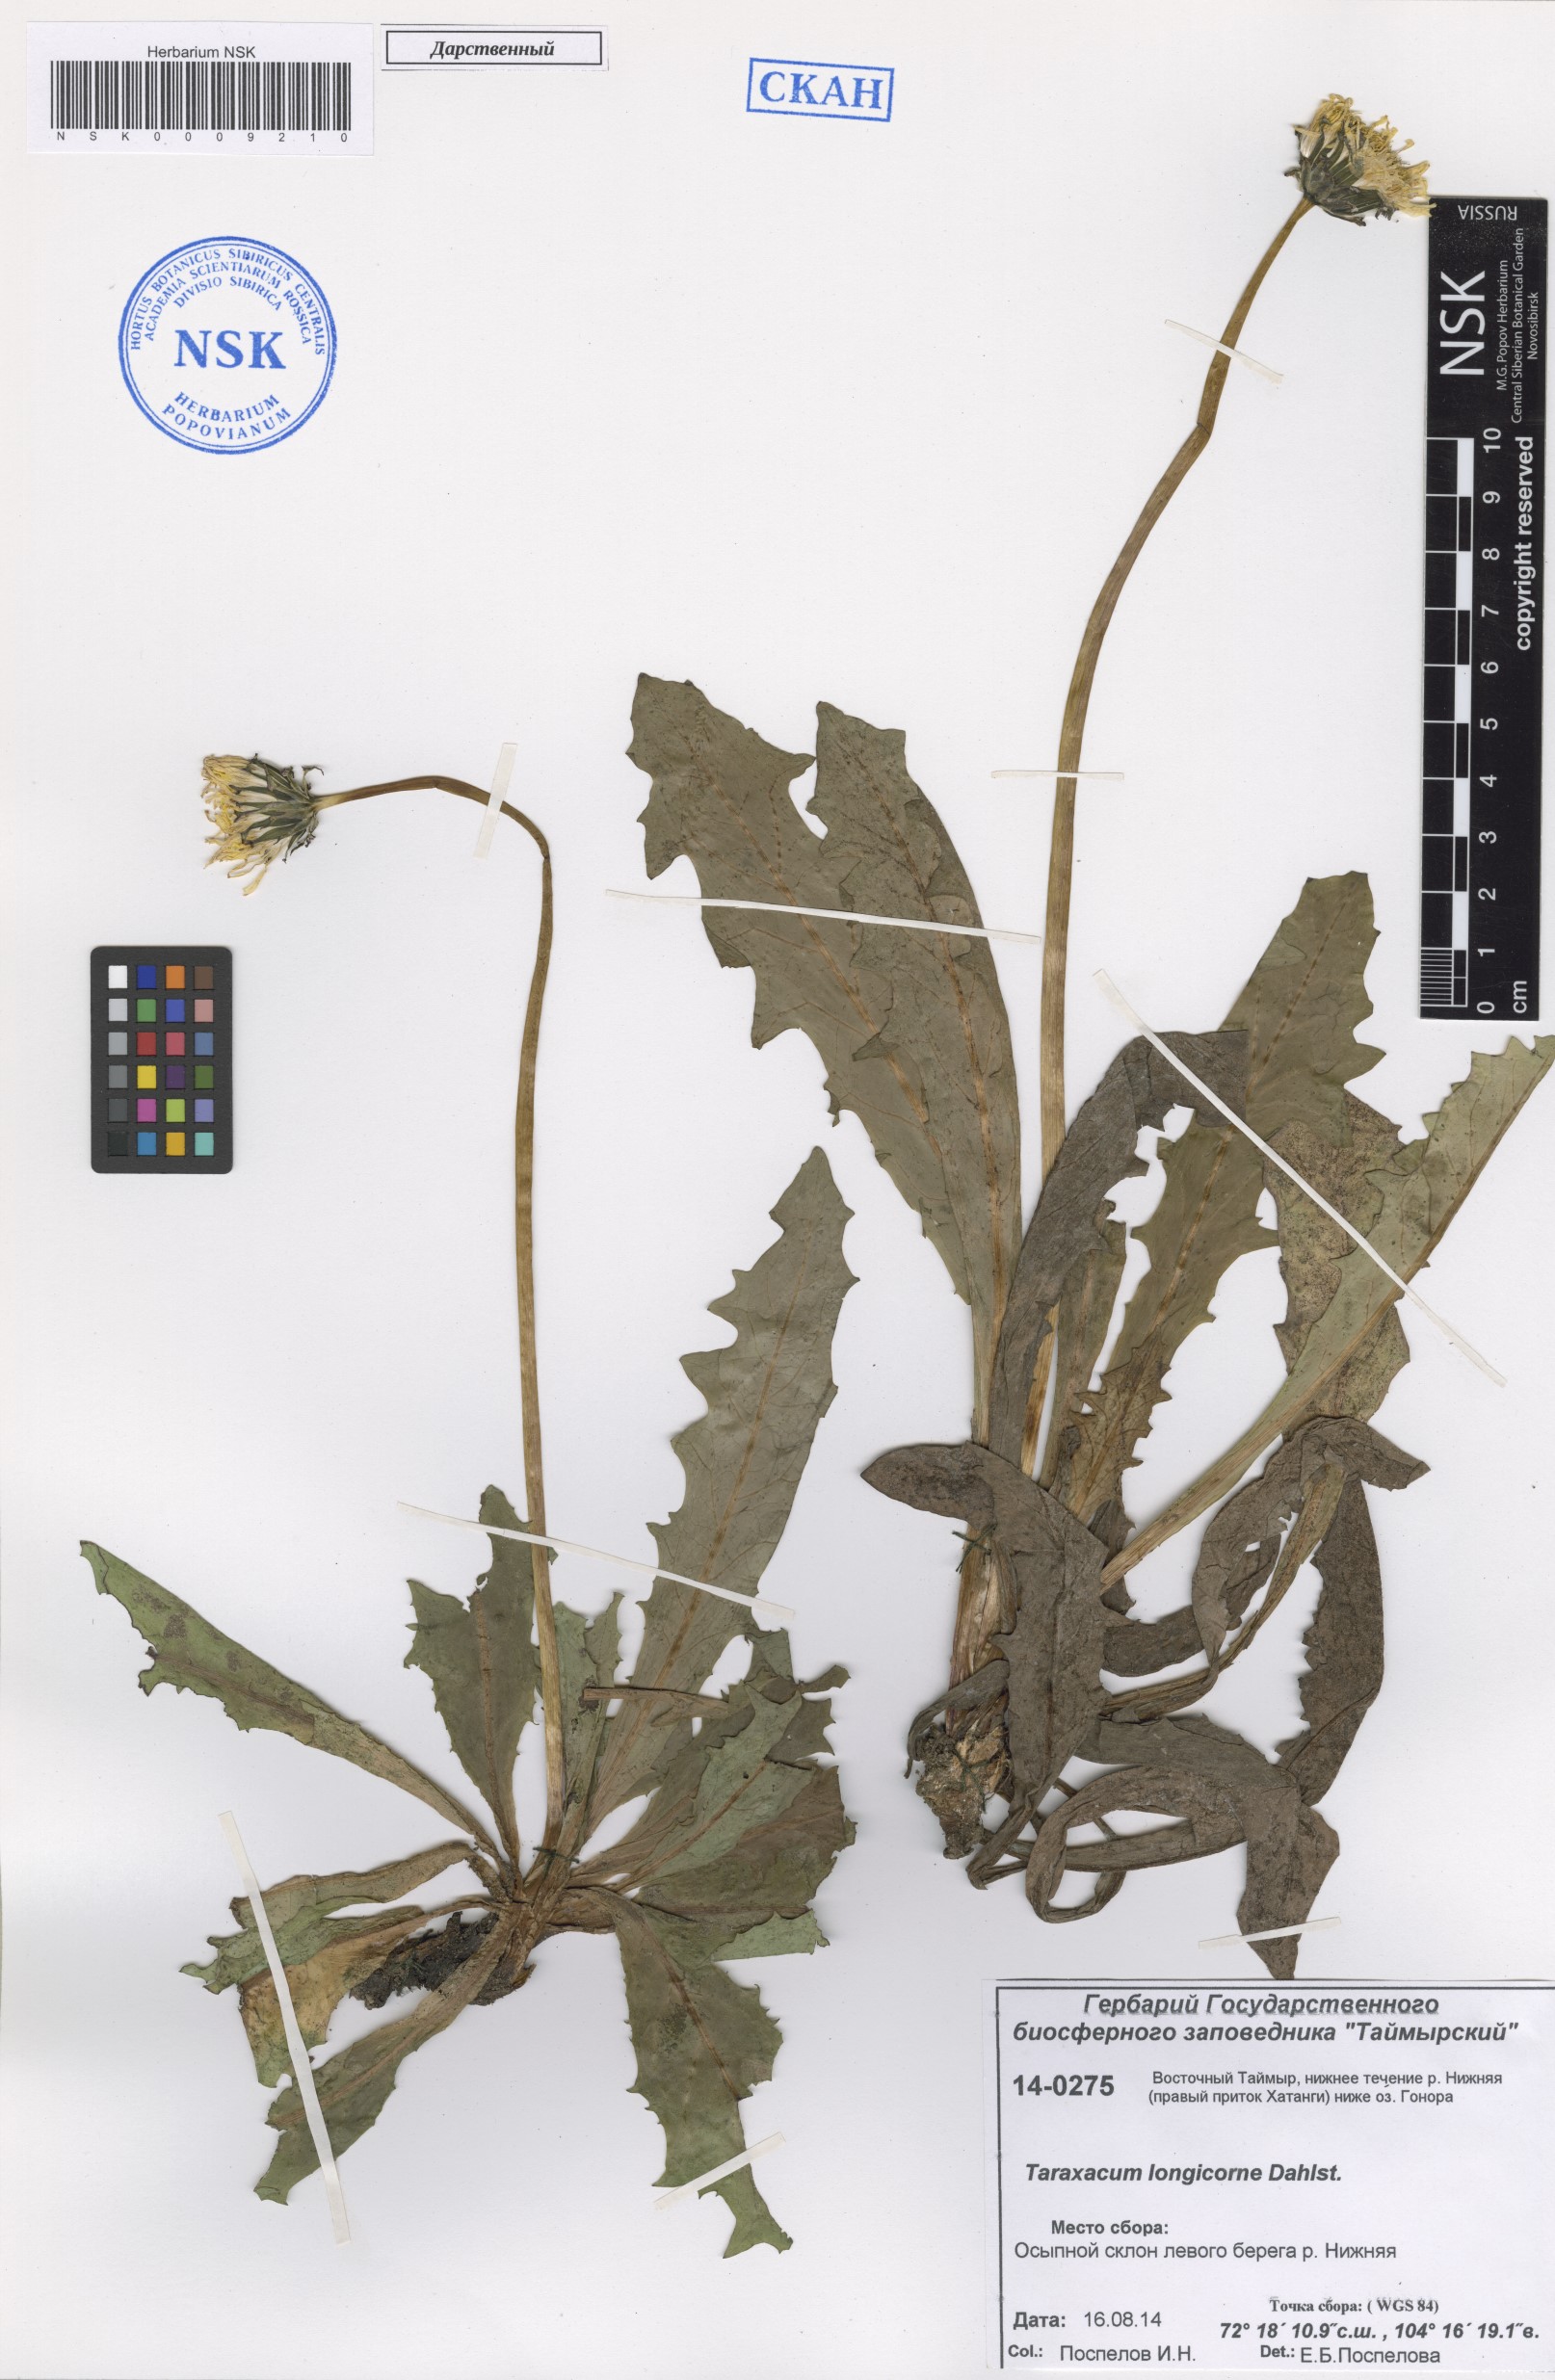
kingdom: Plantae
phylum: Tracheophyta
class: Magnoliopsida
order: Asterales
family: Asteraceae
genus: Taraxacum
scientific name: Taraxacum longicorne
